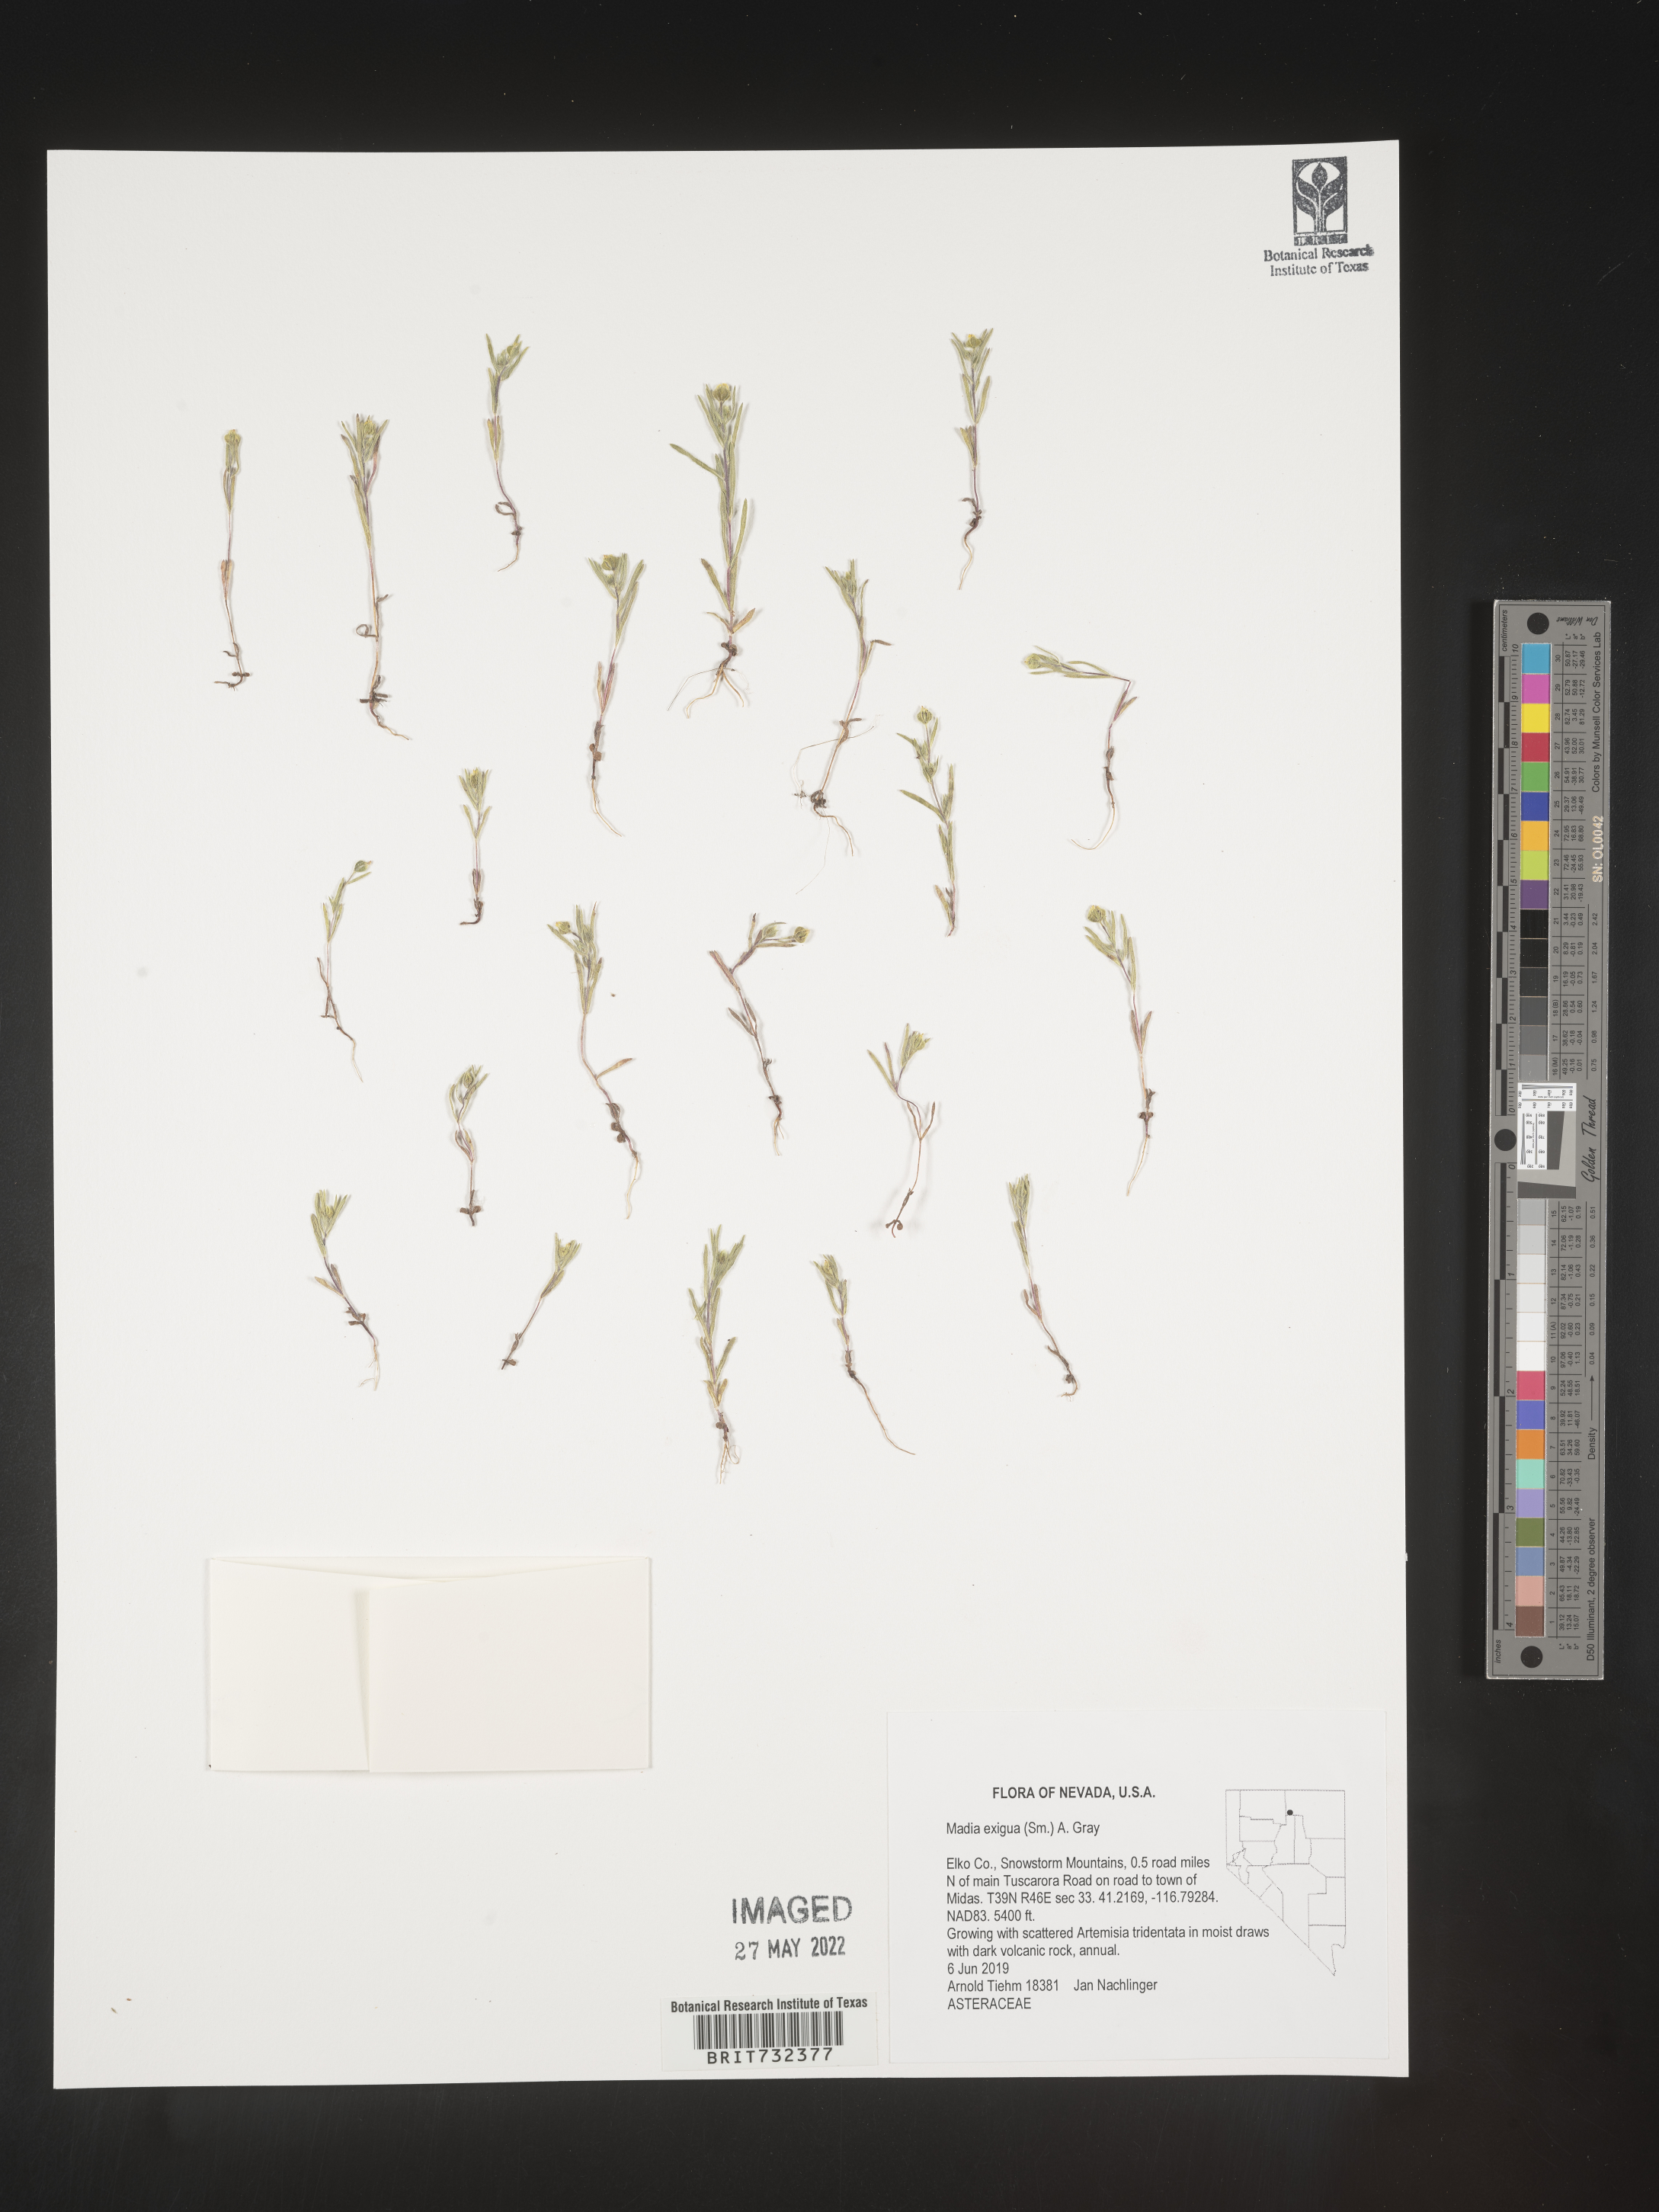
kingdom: Plantae
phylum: Tracheophyta
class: Magnoliopsida
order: Asterales
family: Asteraceae
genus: Madia
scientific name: Madia
